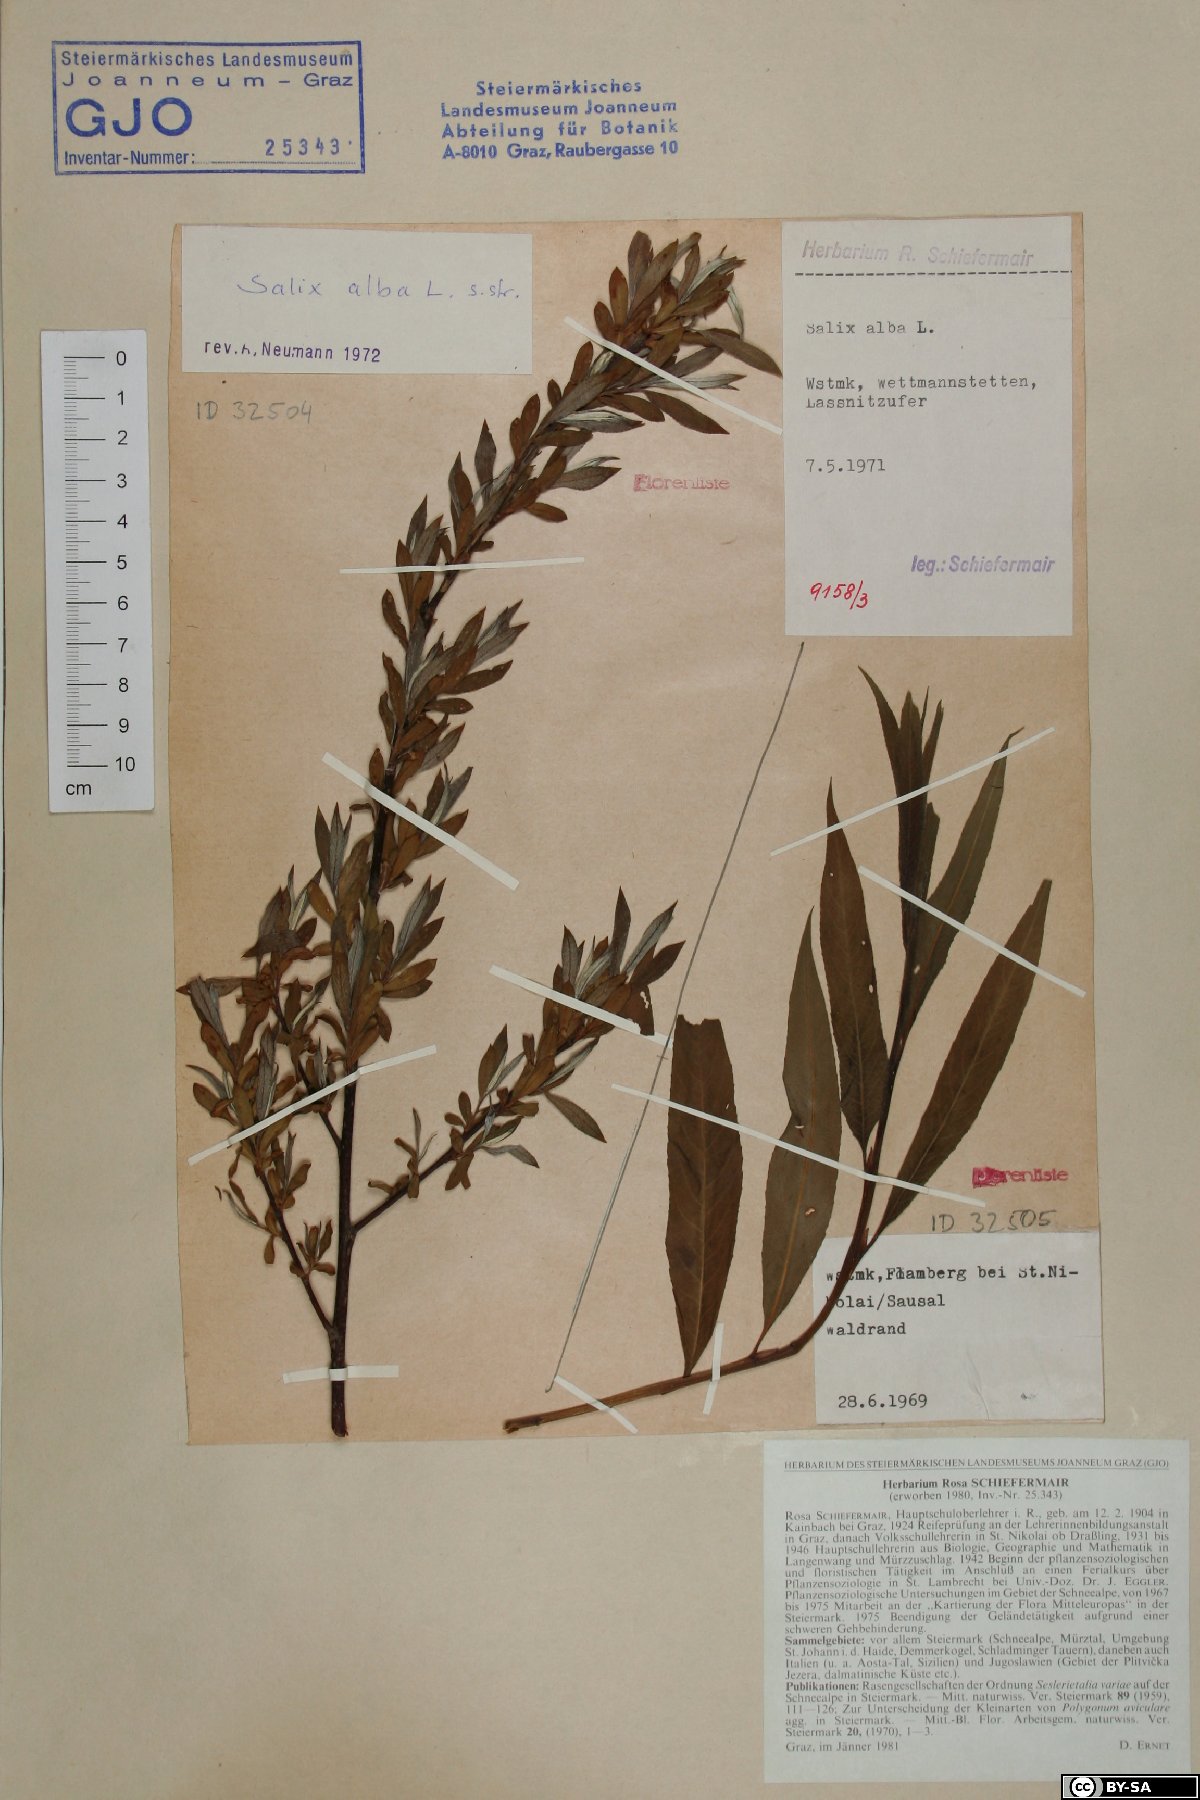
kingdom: Plantae
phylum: Tracheophyta
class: Magnoliopsida
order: Malpighiales
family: Salicaceae
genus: Salix
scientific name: Salix alba
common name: White willow
